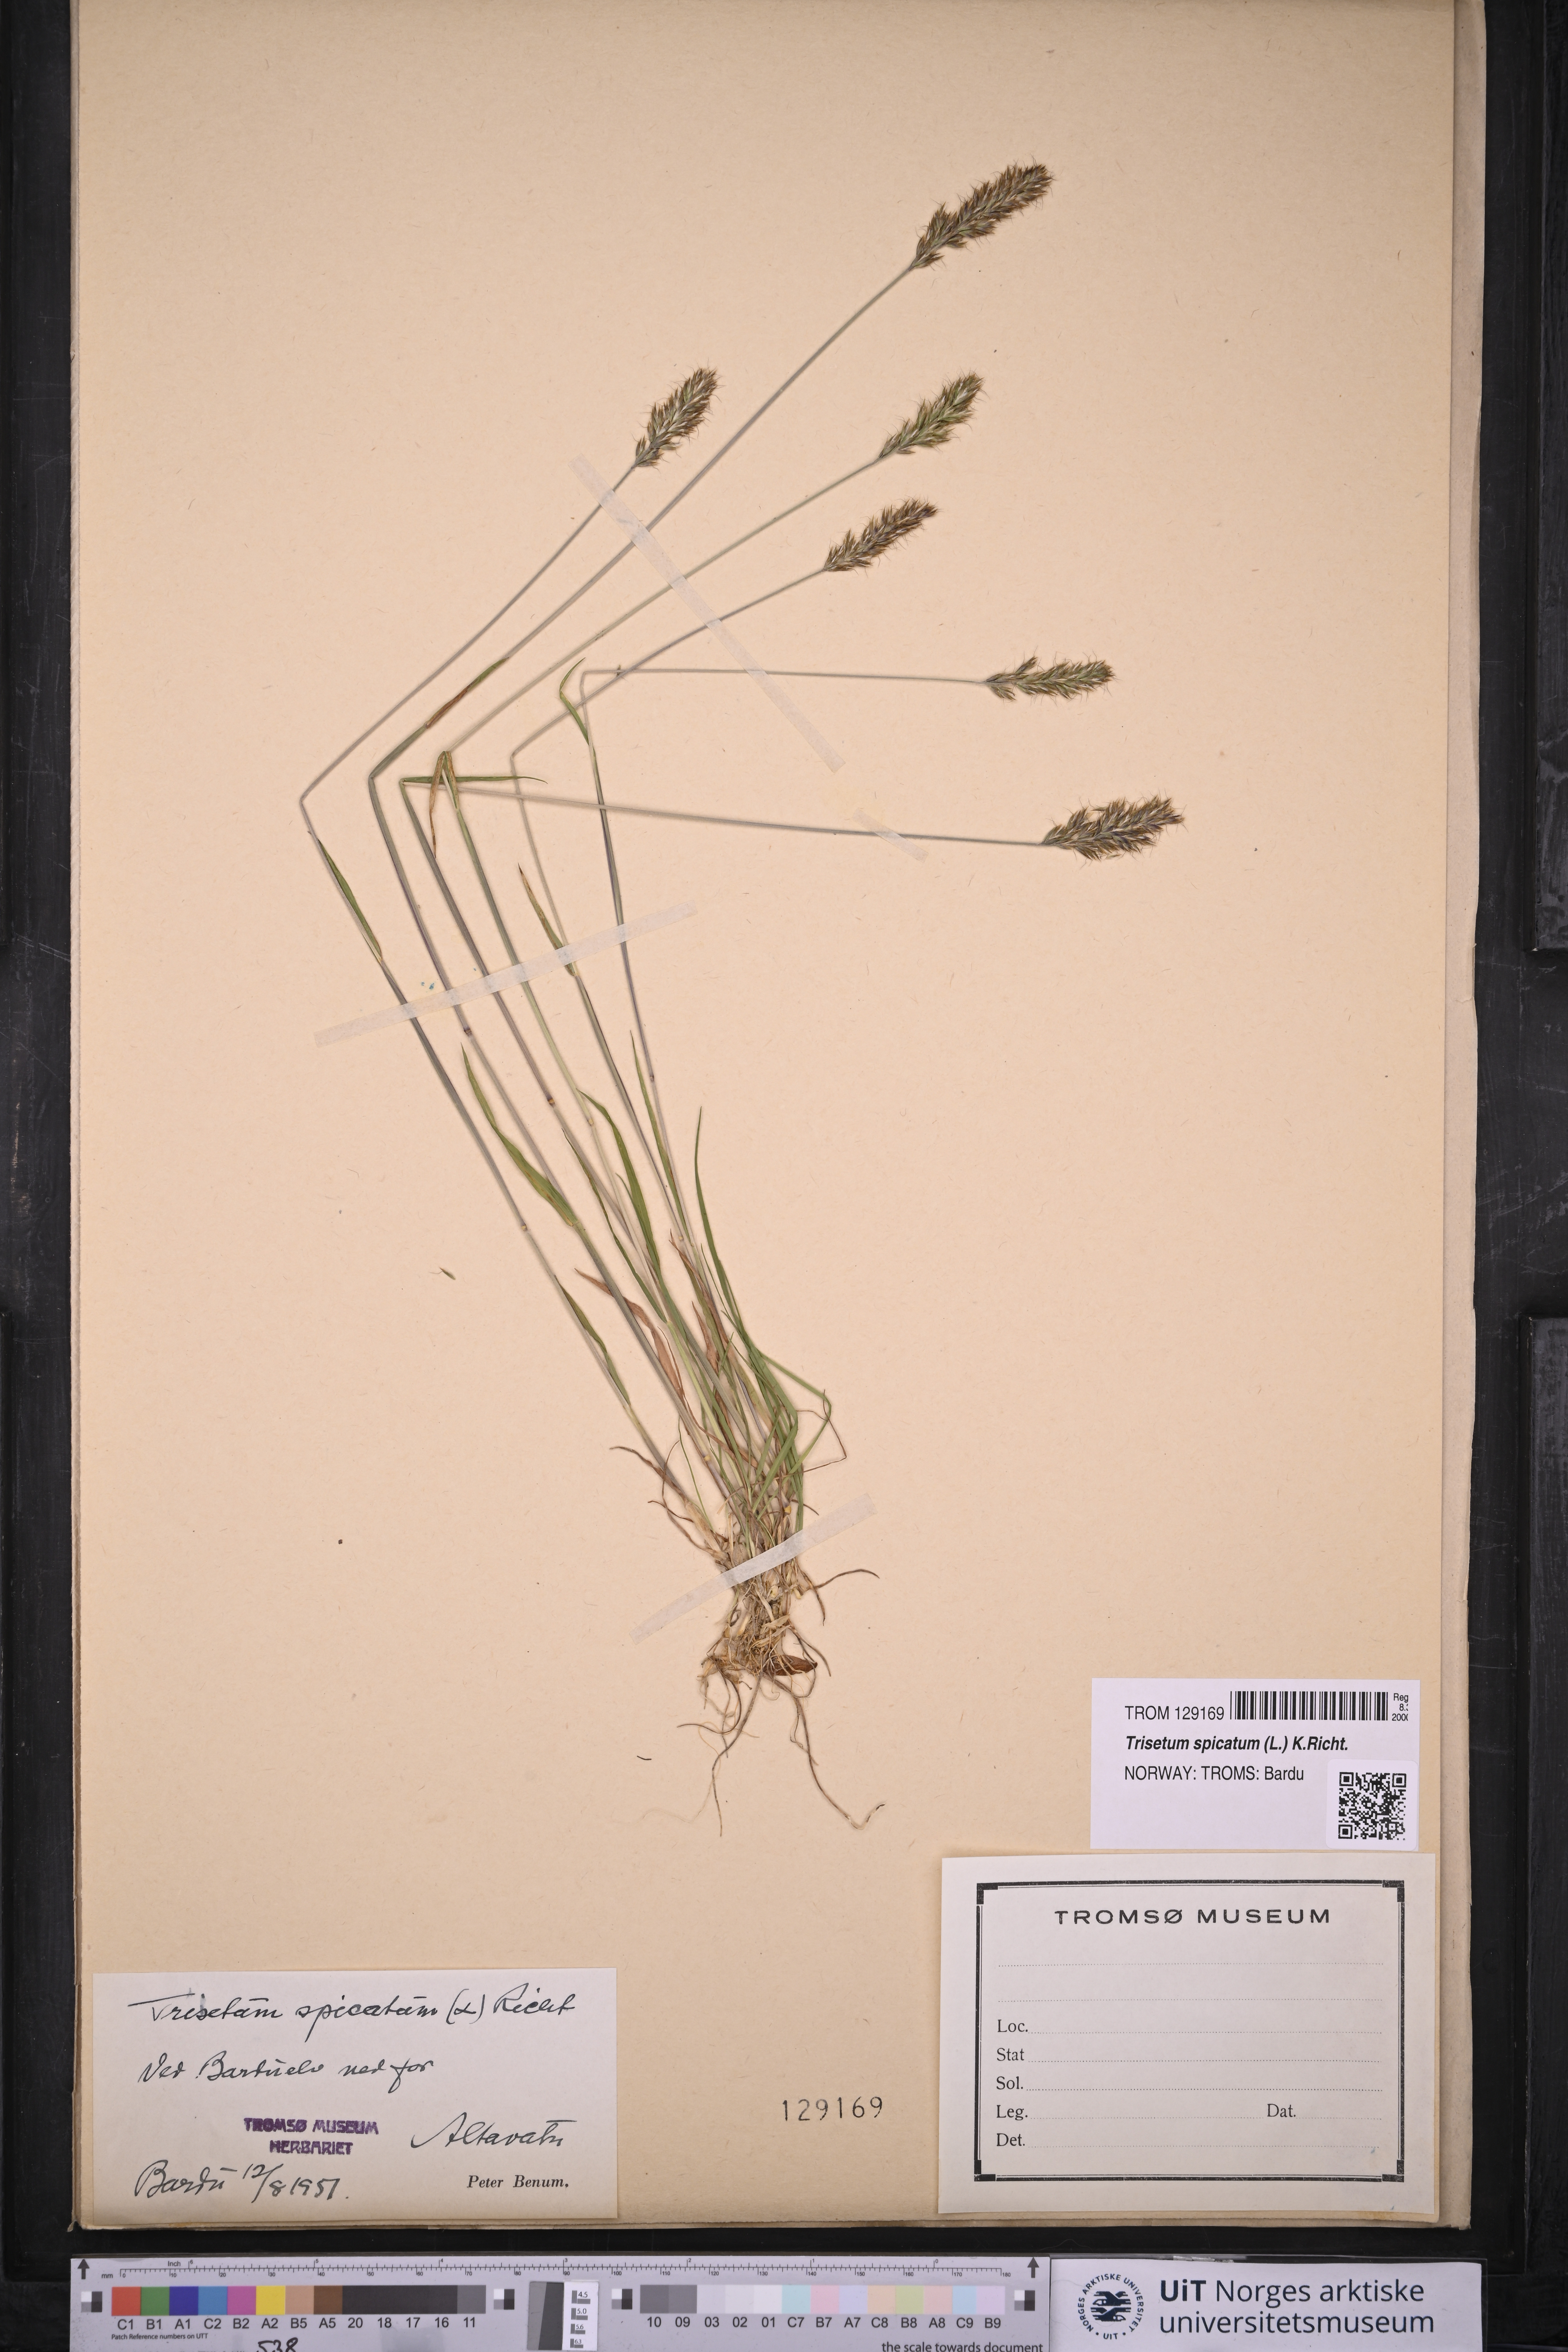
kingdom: Plantae
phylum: Tracheophyta
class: Liliopsida
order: Poales
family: Poaceae
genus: Koeleria
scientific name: Koeleria spicata
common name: Mountain trisetum
